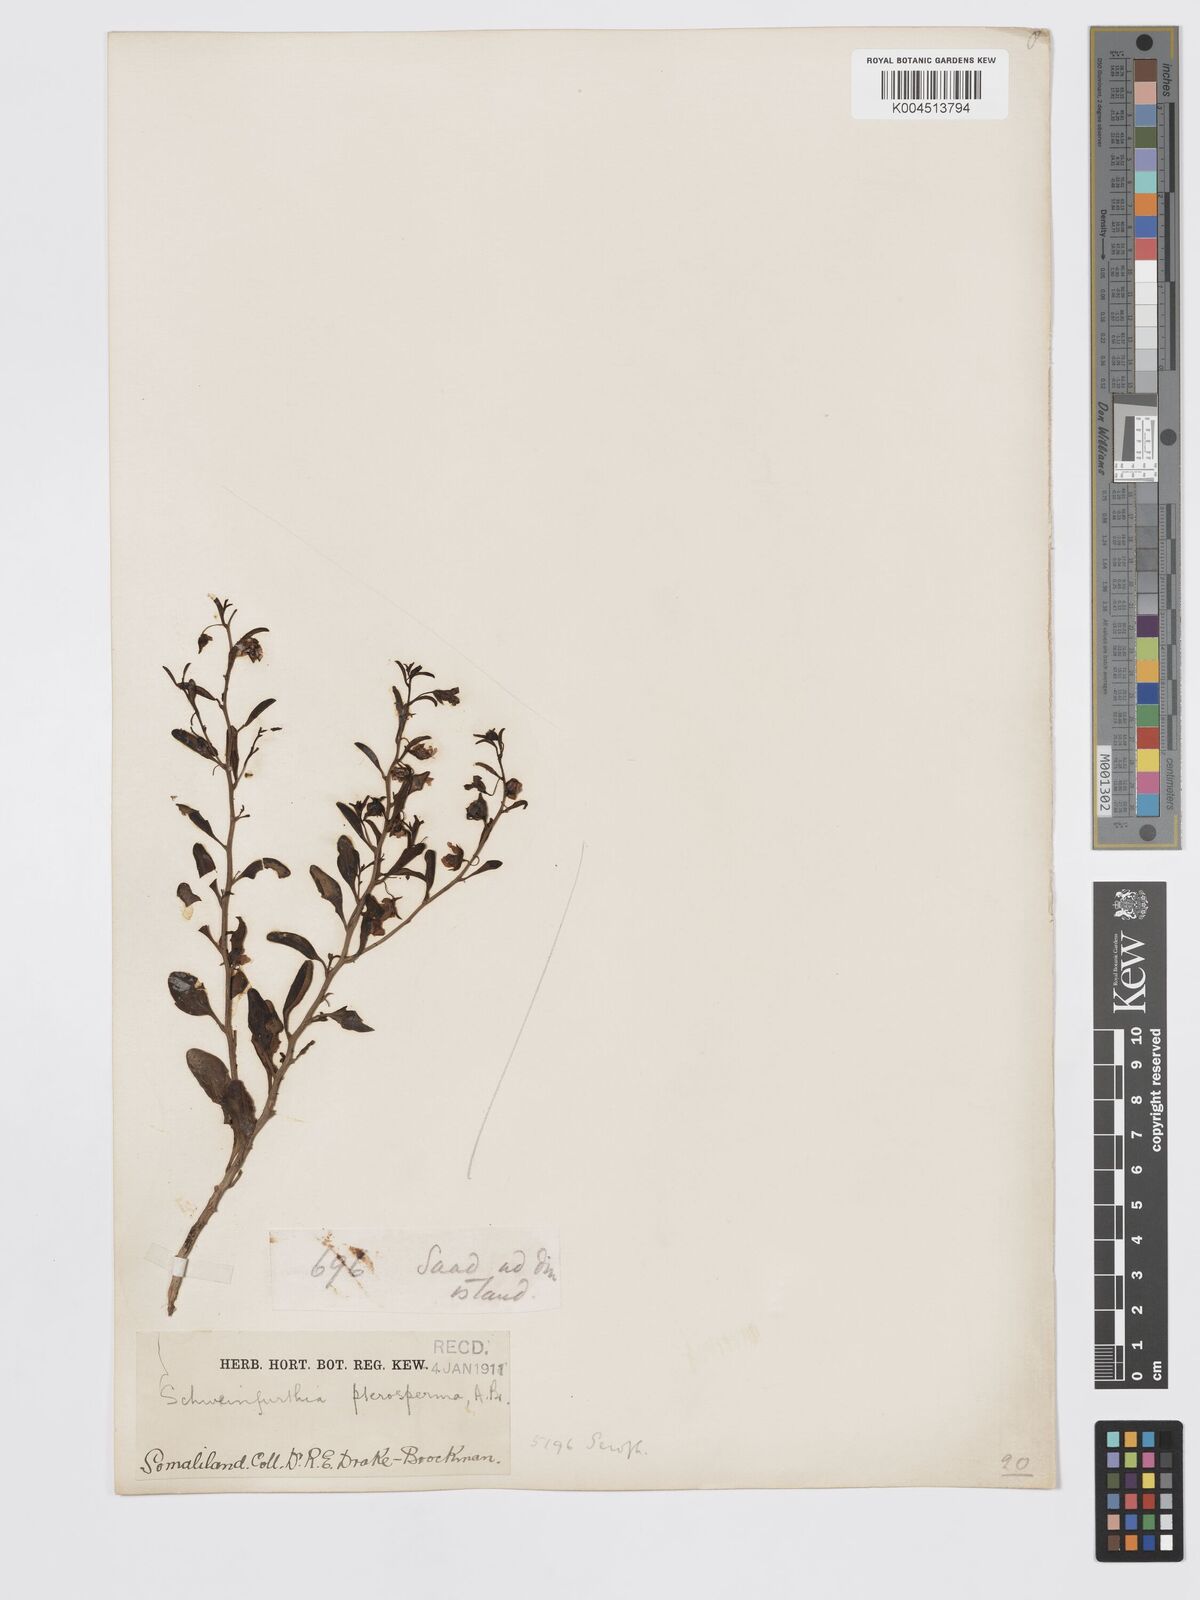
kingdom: Plantae
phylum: Tracheophyta
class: Magnoliopsida
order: Lamiales
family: Plantaginaceae
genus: Schweinfurthia
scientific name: Schweinfurthia pterosperma
